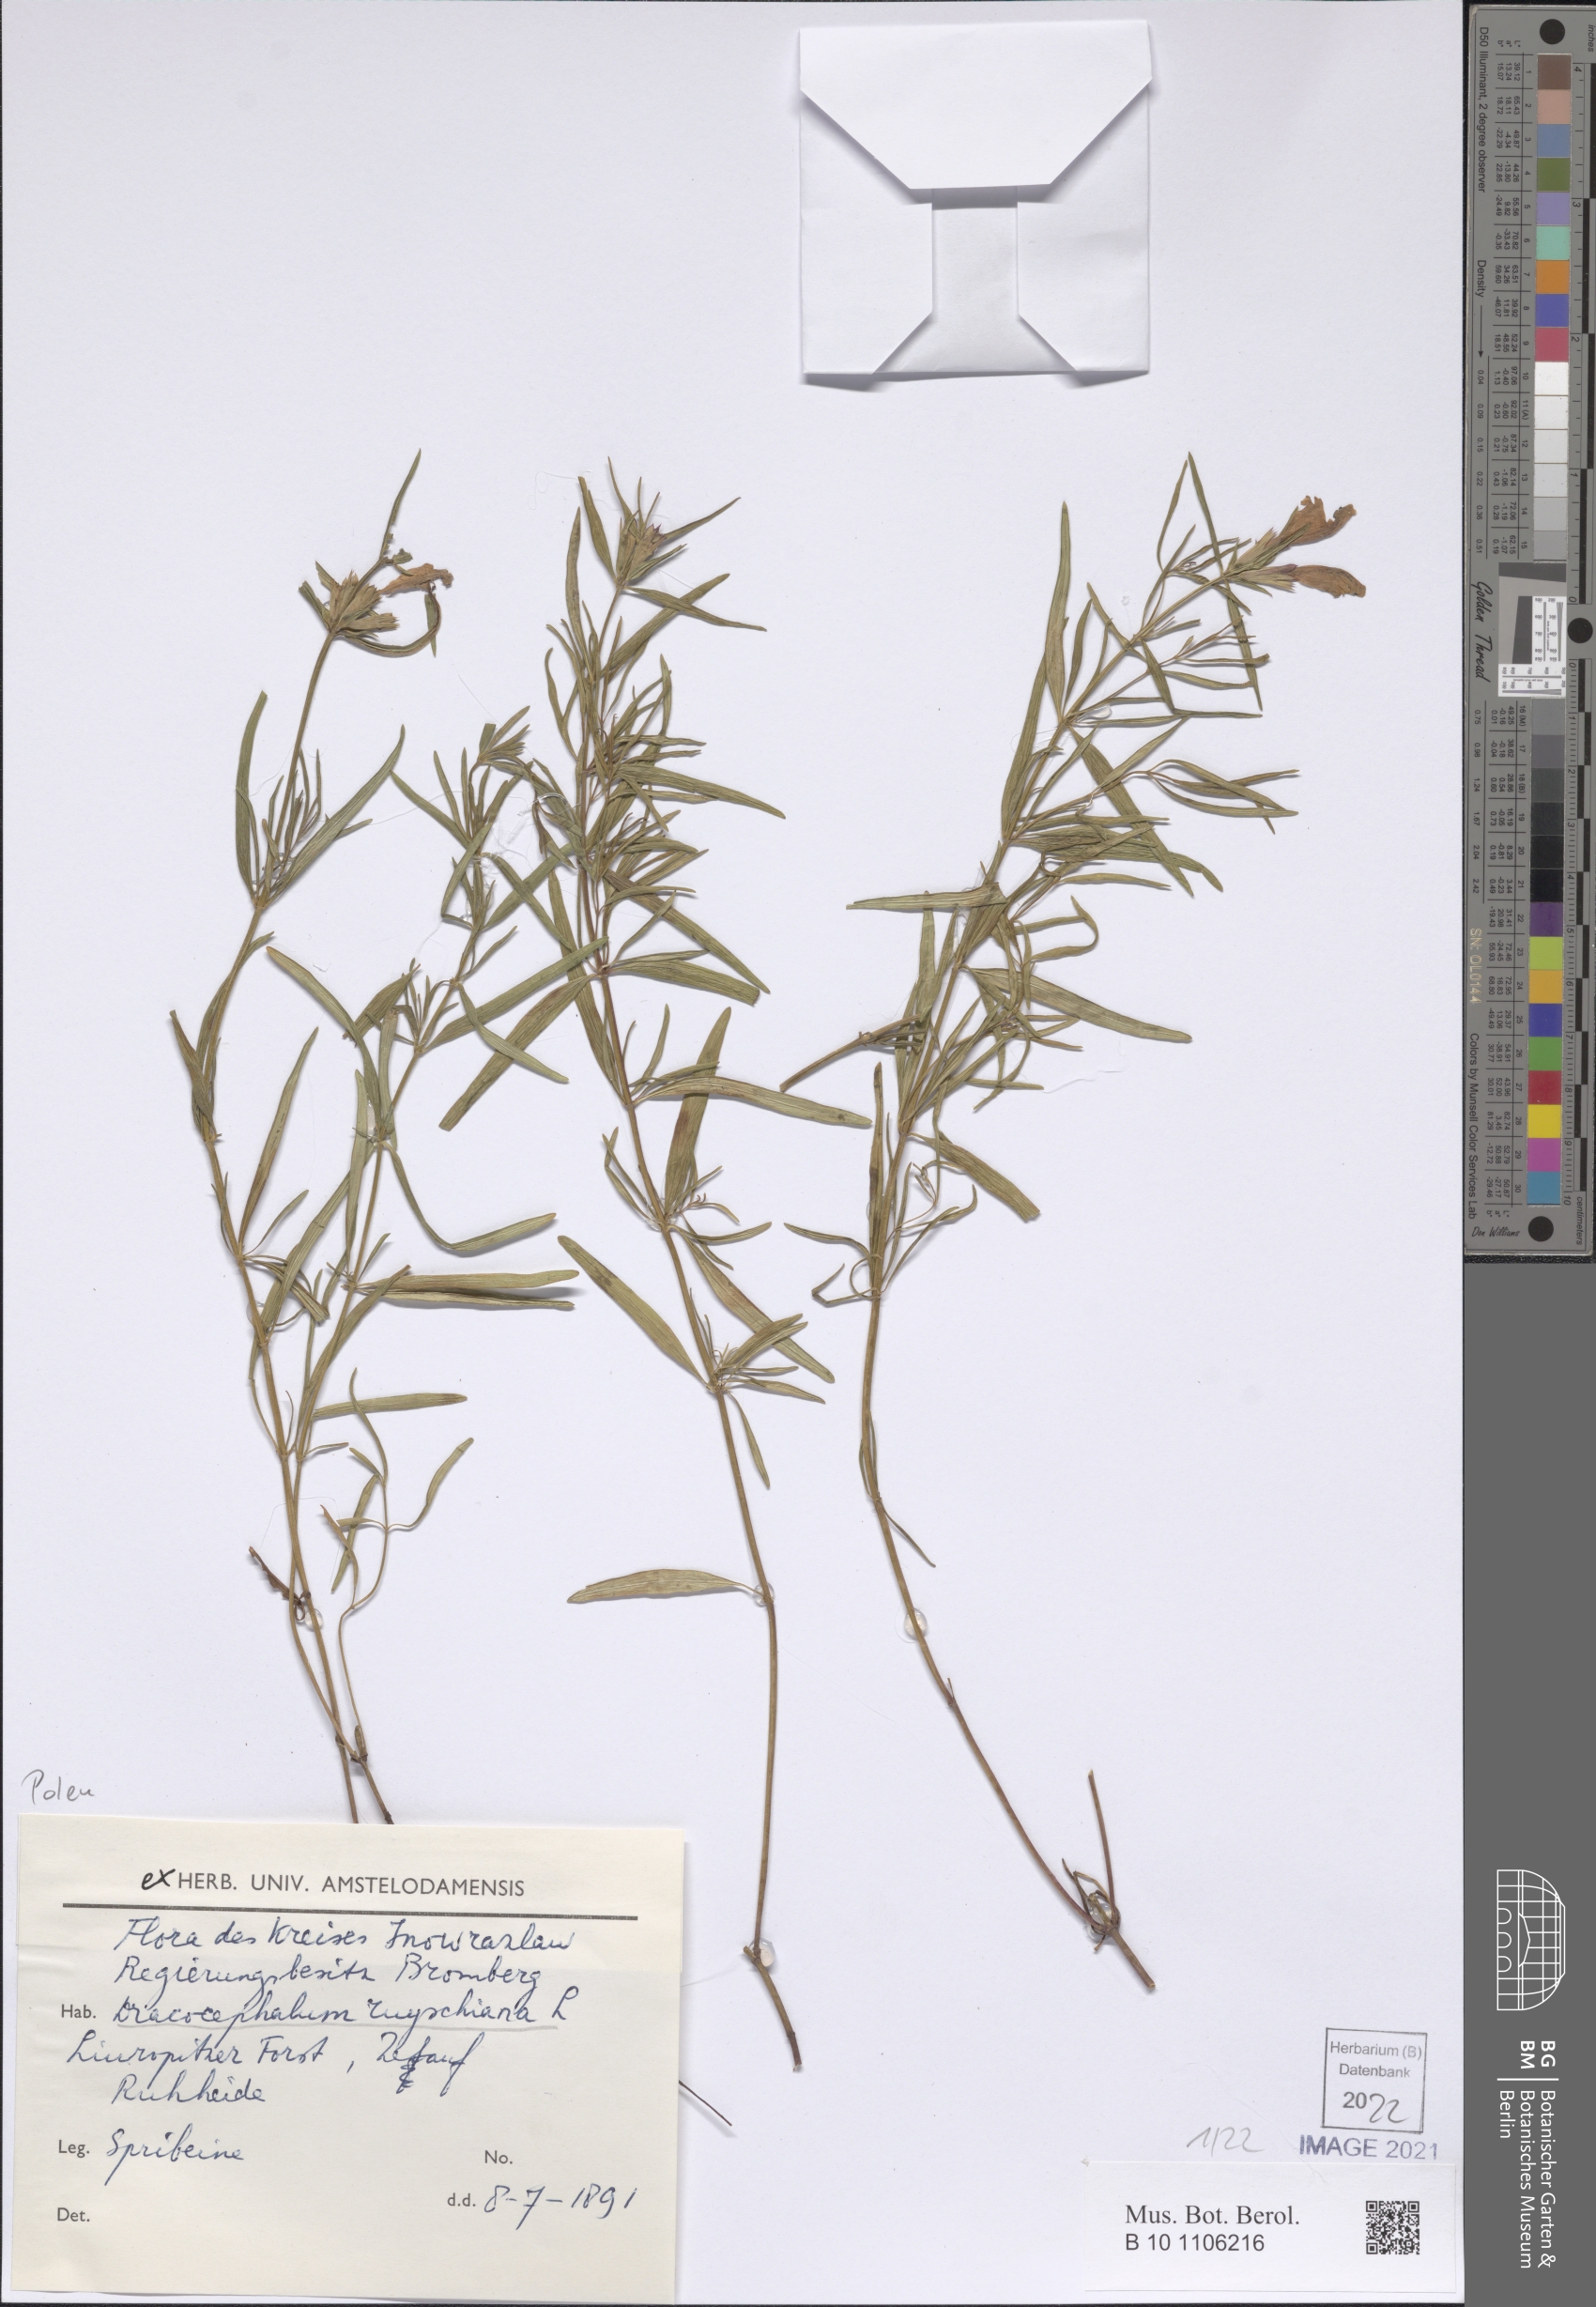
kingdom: Plantae
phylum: Tracheophyta
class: Magnoliopsida
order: Lamiales
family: Lamiaceae
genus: Dracocephalum
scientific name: Dracocephalum ruyschiana
